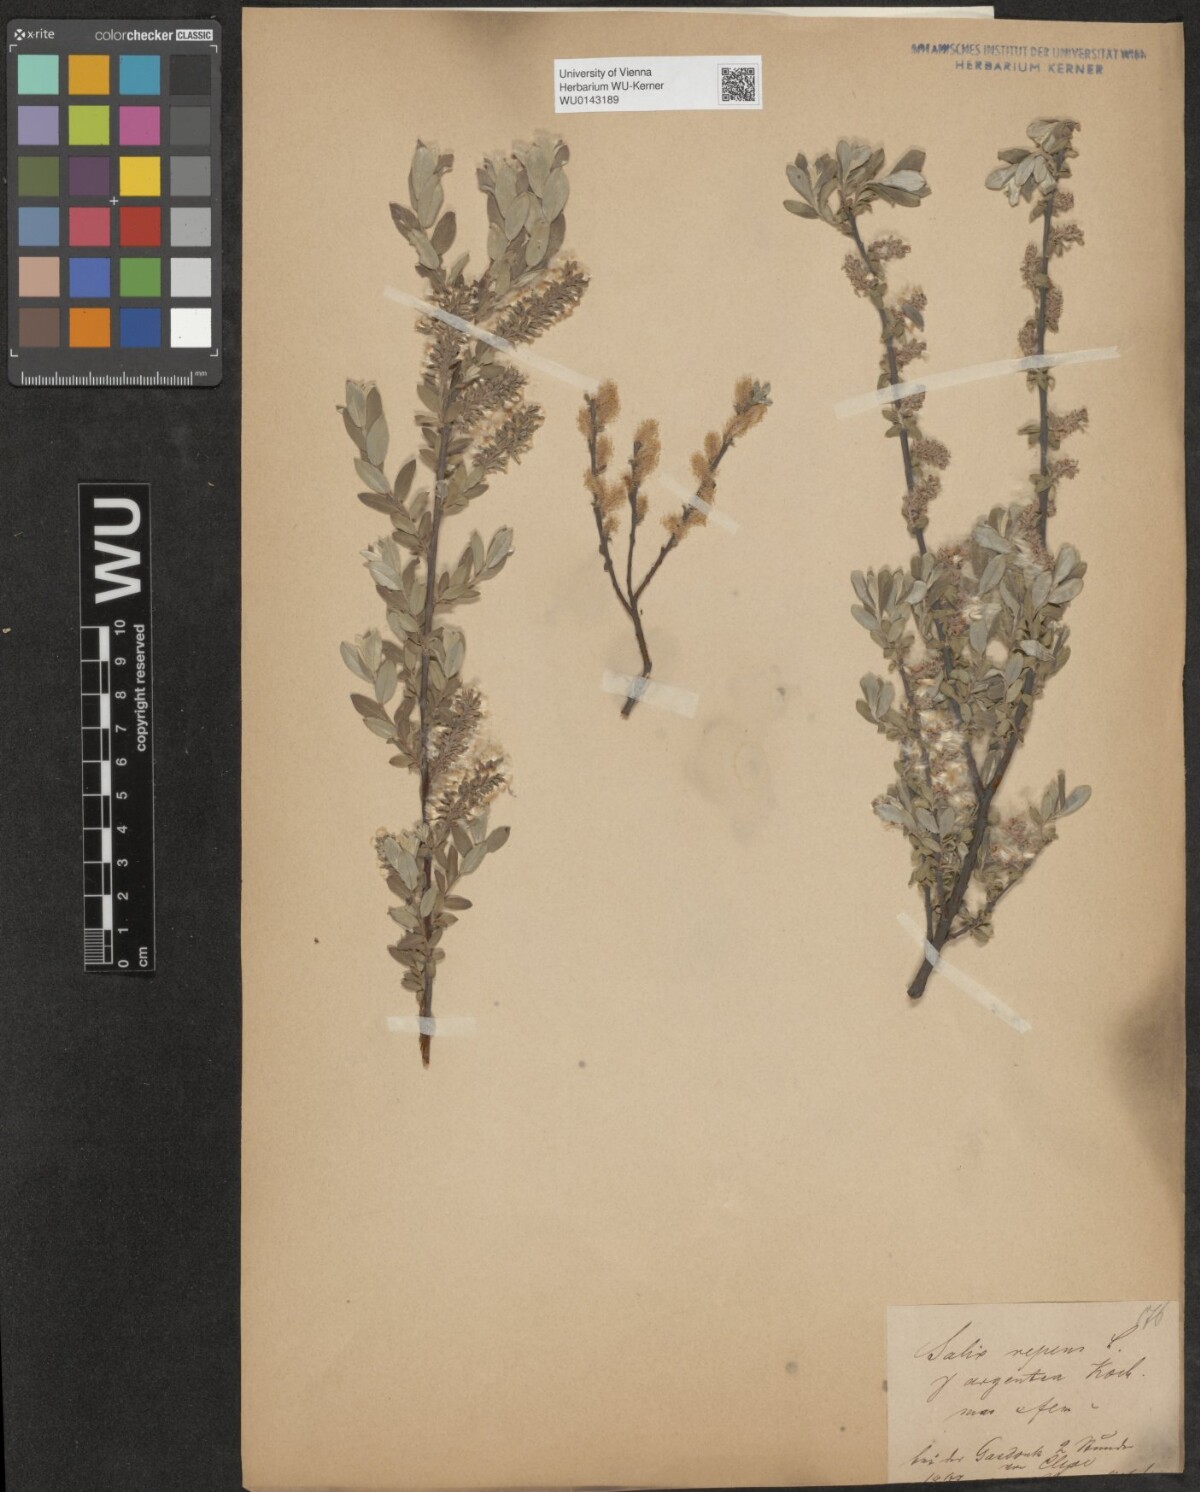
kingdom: Plantae
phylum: Tracheophyta
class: Magnoliopsida
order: Malpighiales
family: Salicaceae
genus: Salix
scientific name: Salix repens
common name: Creeping willow
